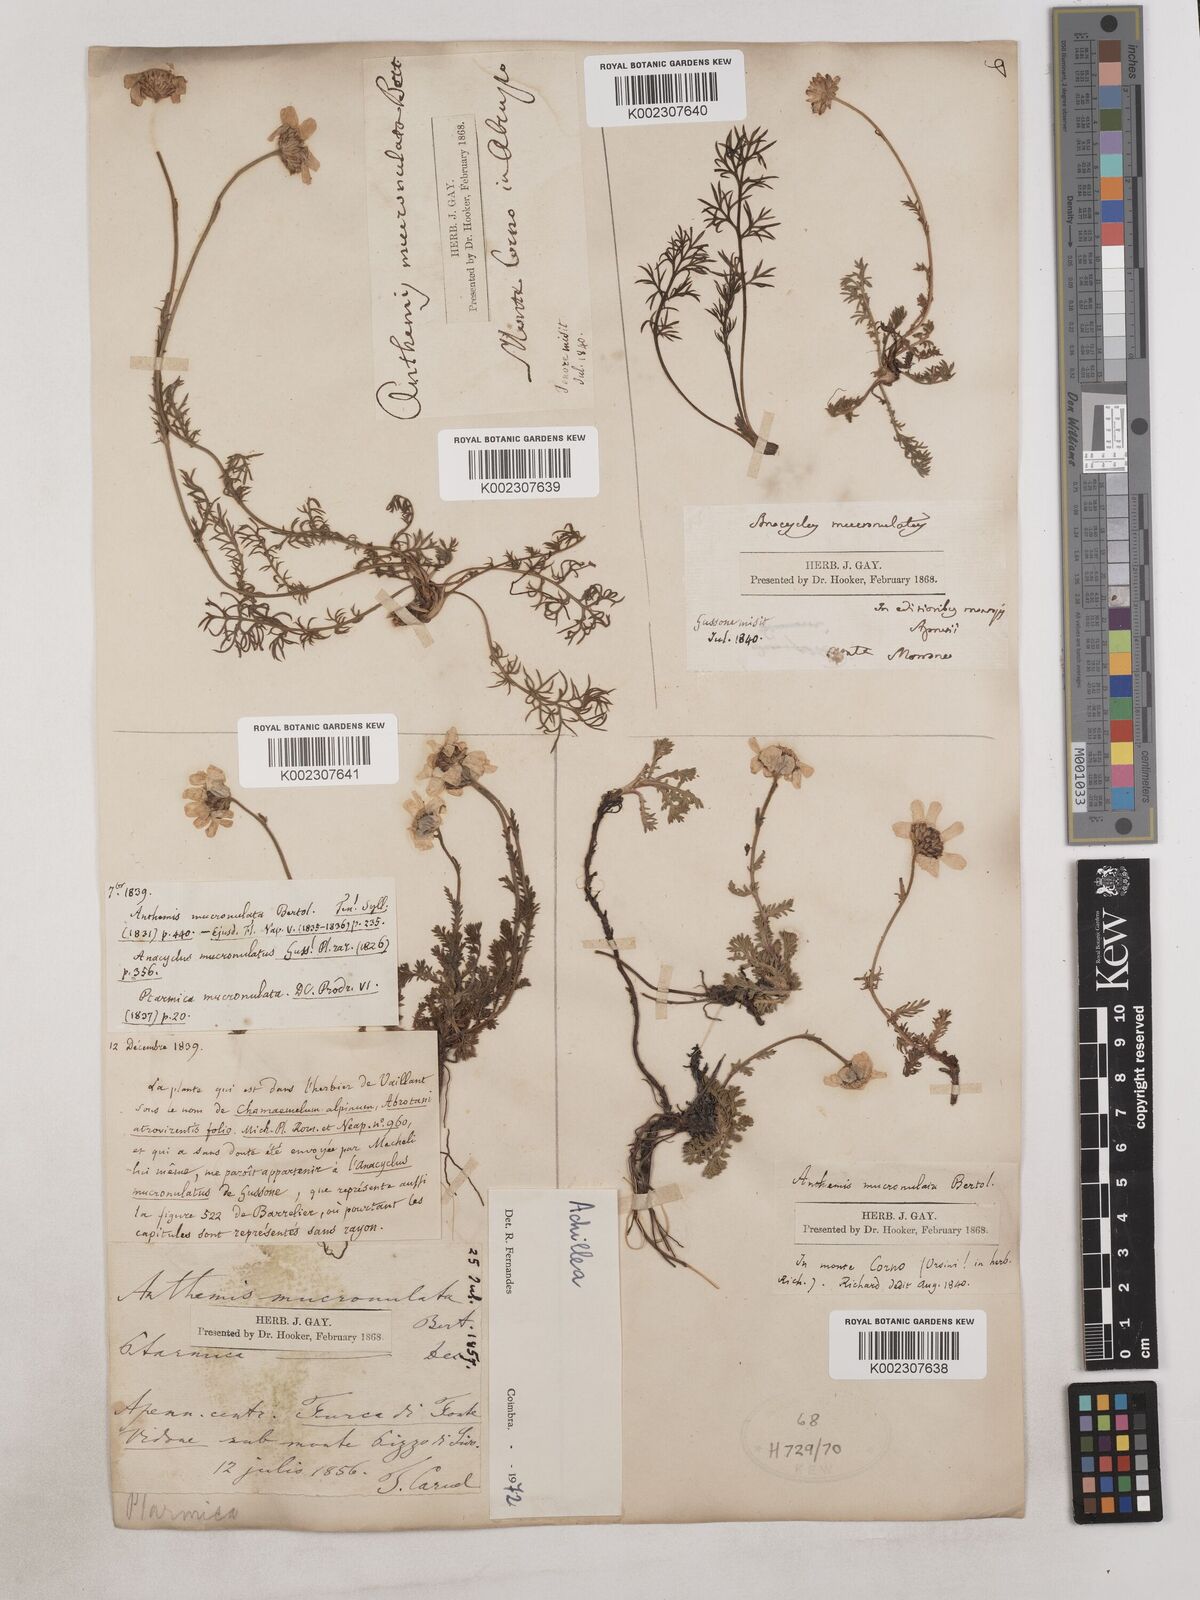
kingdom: Plantae
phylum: Tracheophyta
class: Magnoliopsida
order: Asterales
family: Asteraceae
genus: Achillea
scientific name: Achillea
